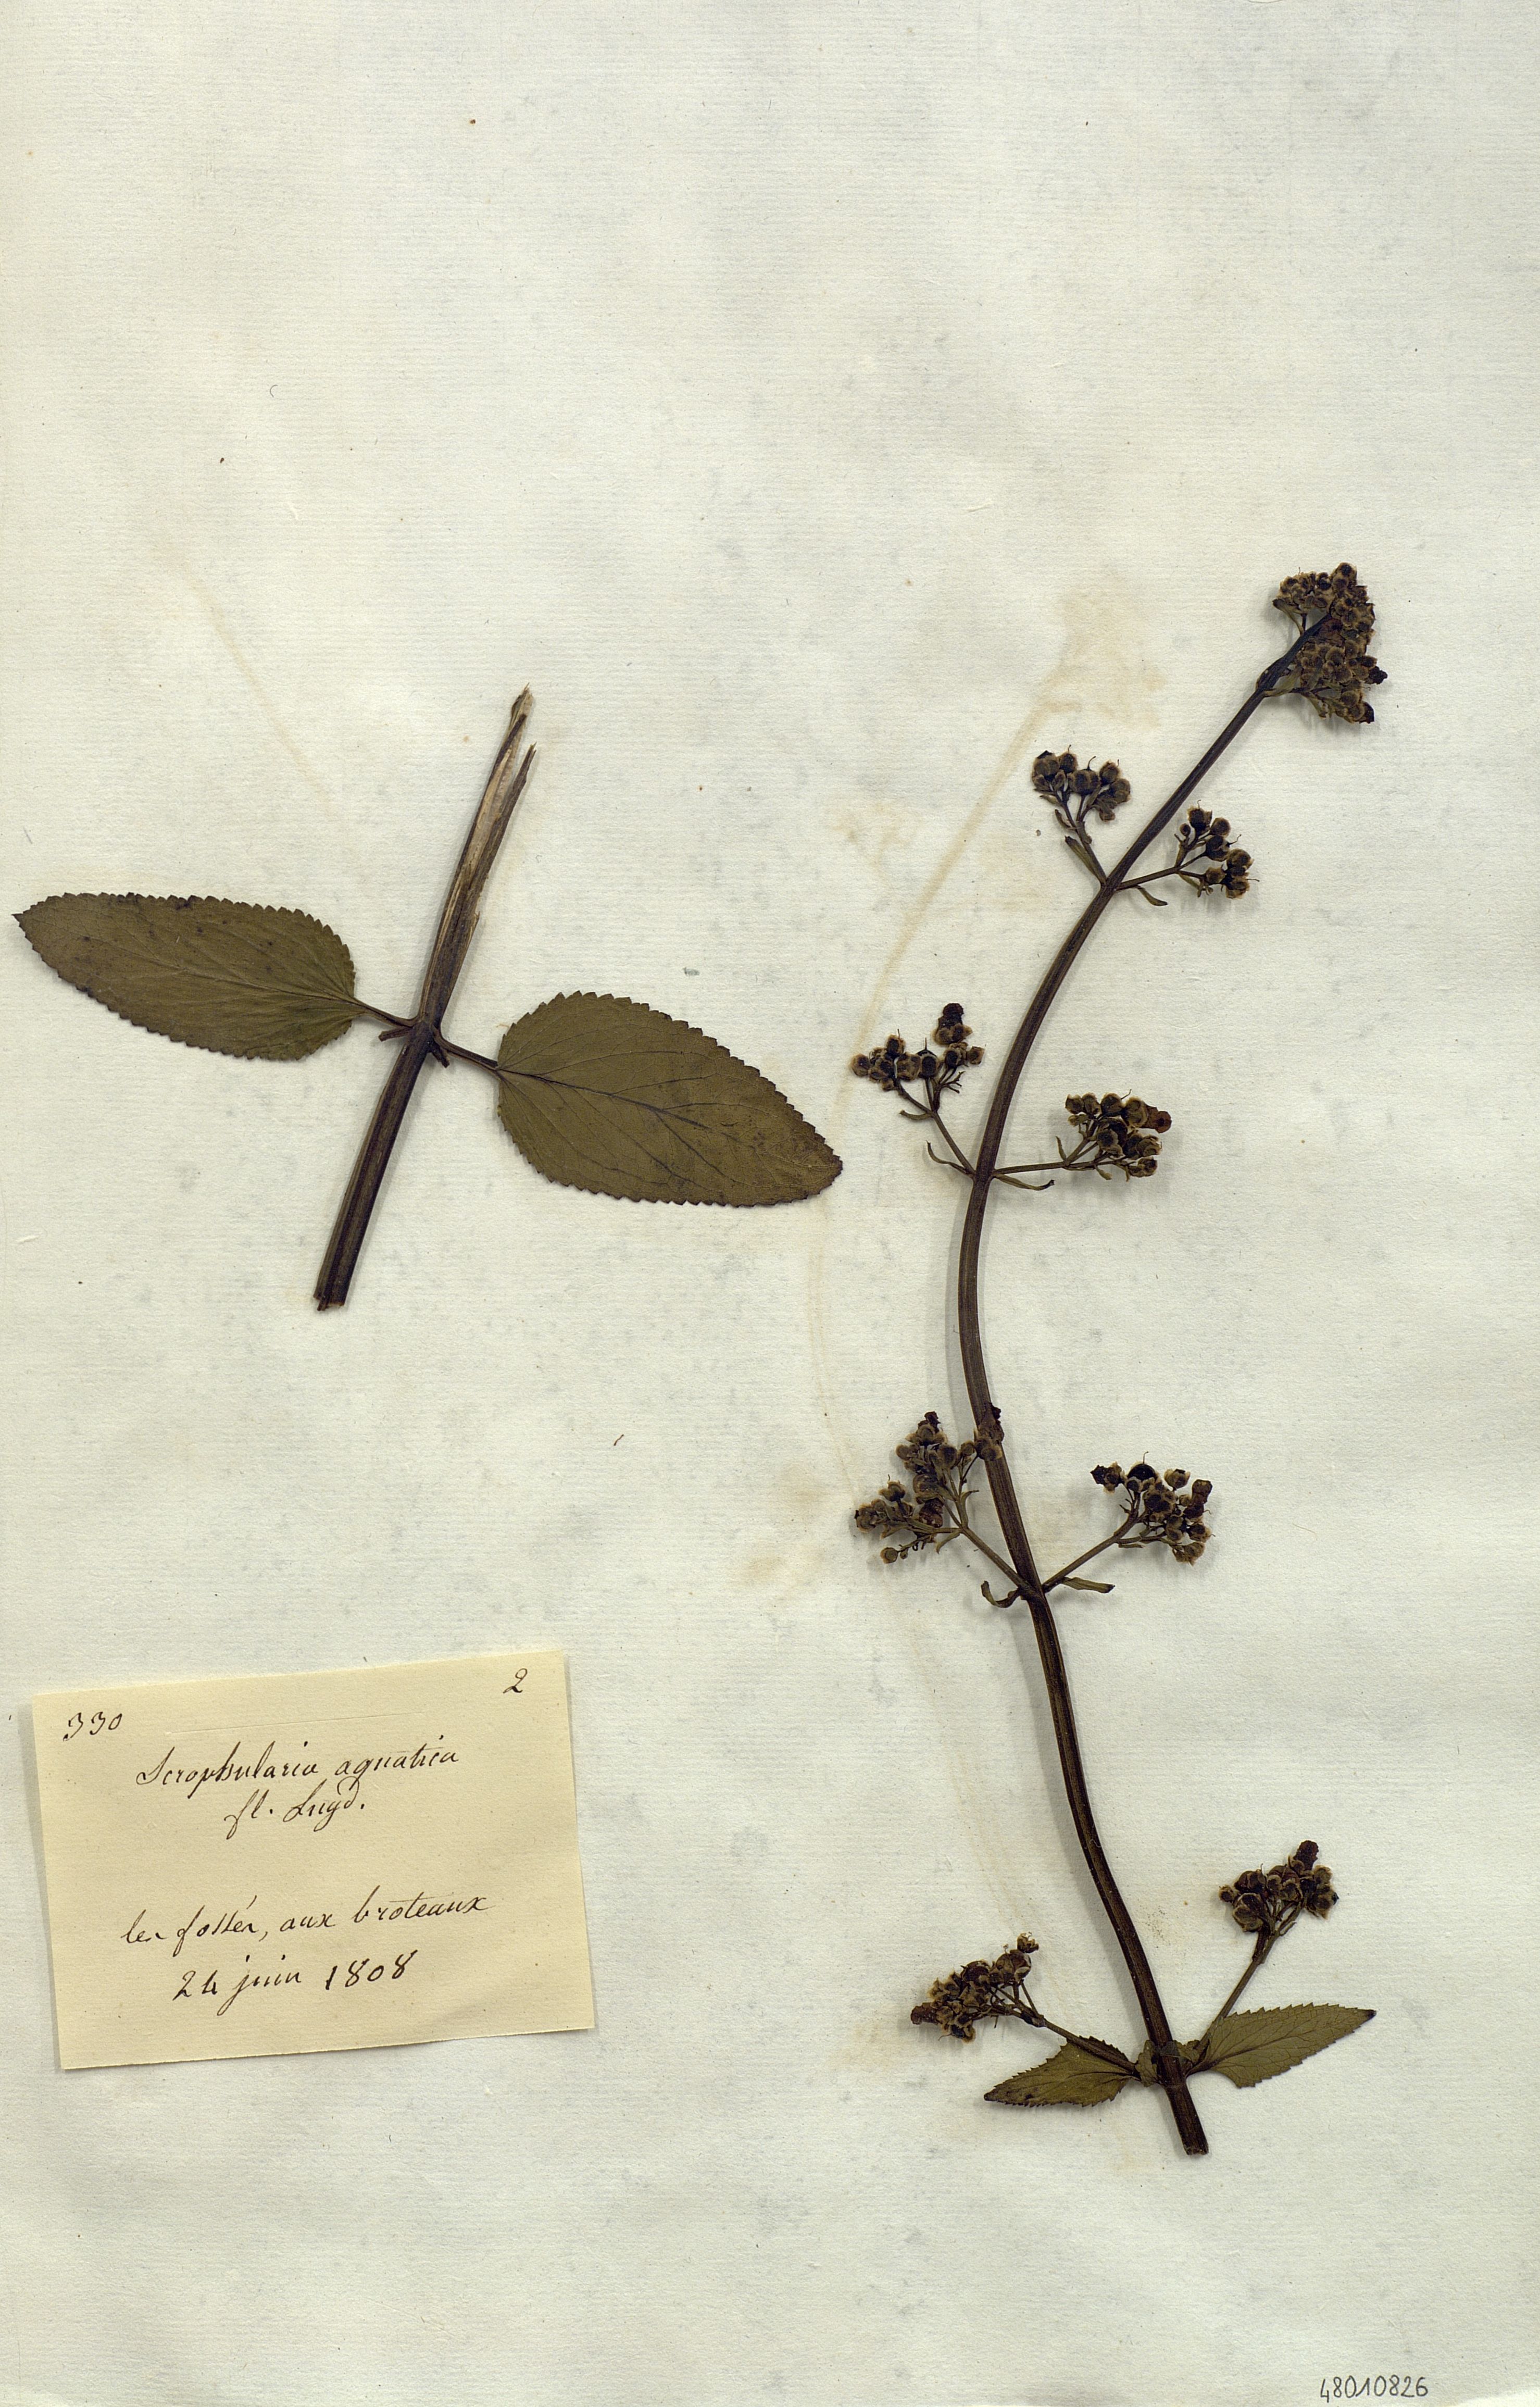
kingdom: Plantae
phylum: Tracheophyta
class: Magnoliopsida
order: Lamiales
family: Scrophulariaceae
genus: Scrophularia
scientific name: Scrophularia
